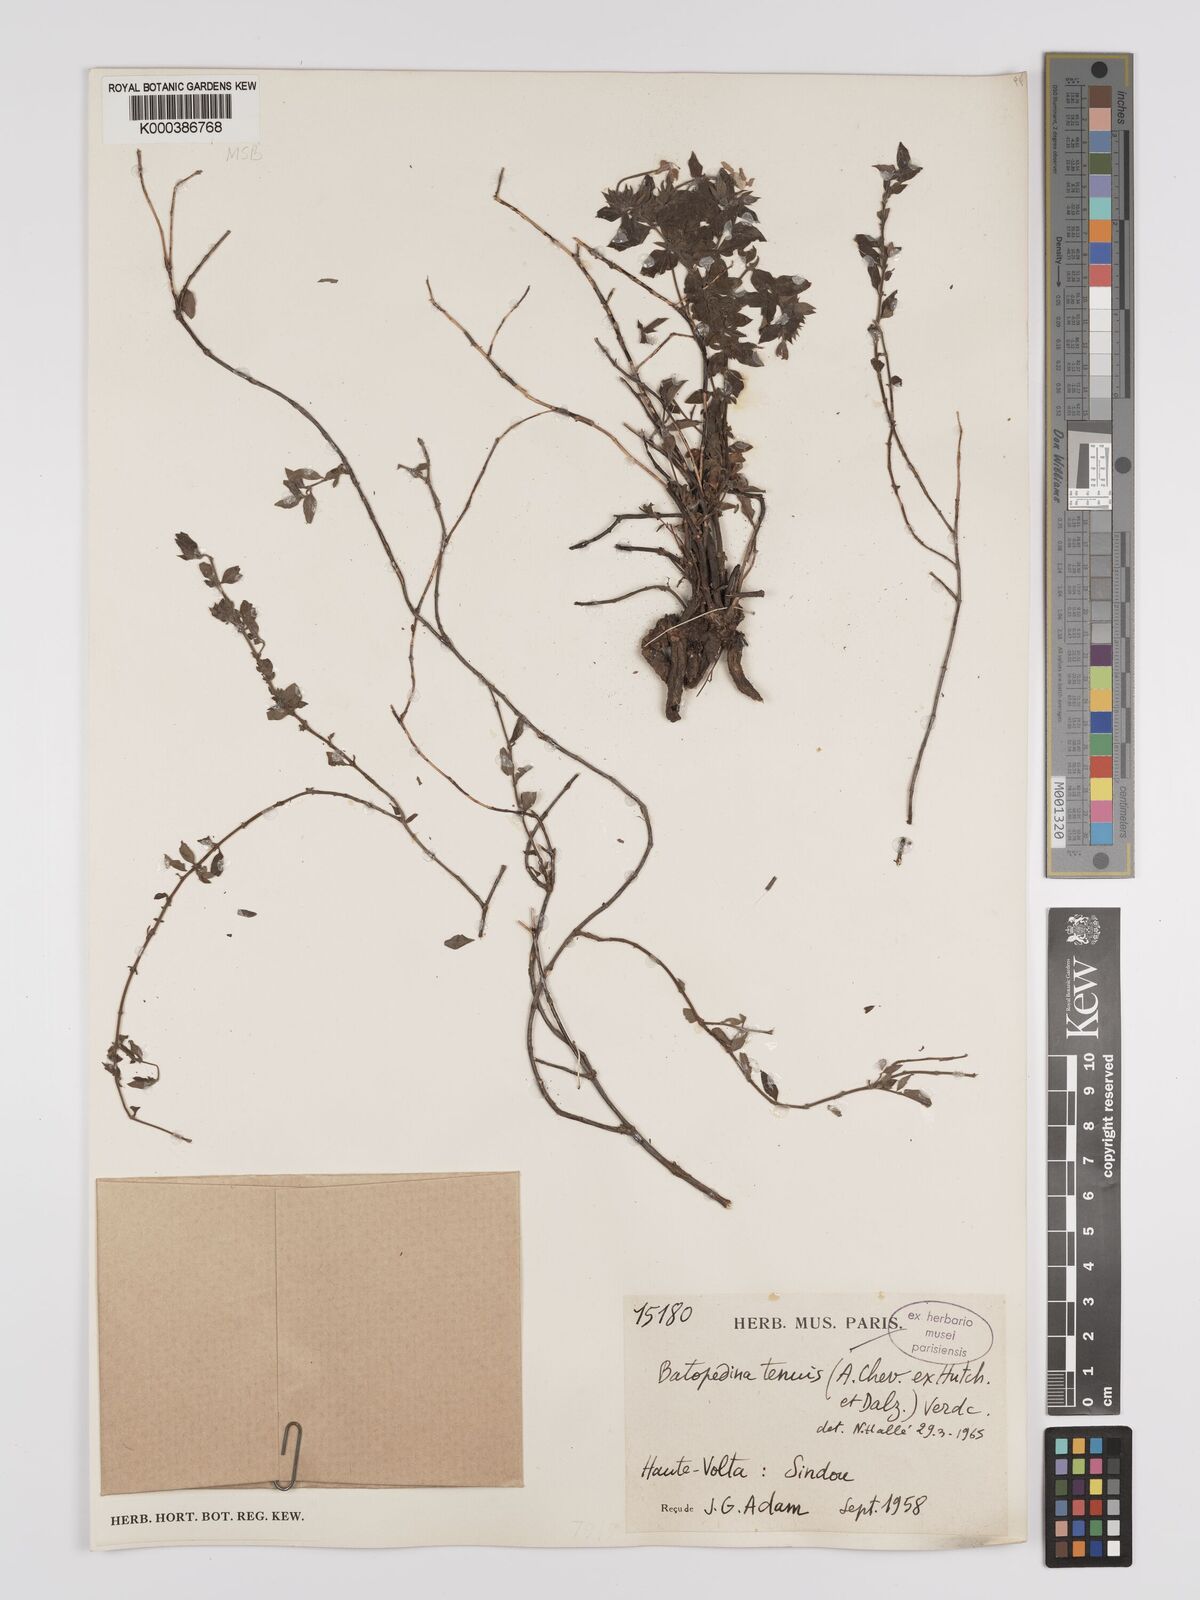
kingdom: Plantae
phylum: Tracheophyta
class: Magnoliopsida
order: Gentianales
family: Rubiaceae
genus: Batopedina
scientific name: Batopedina tenuis
